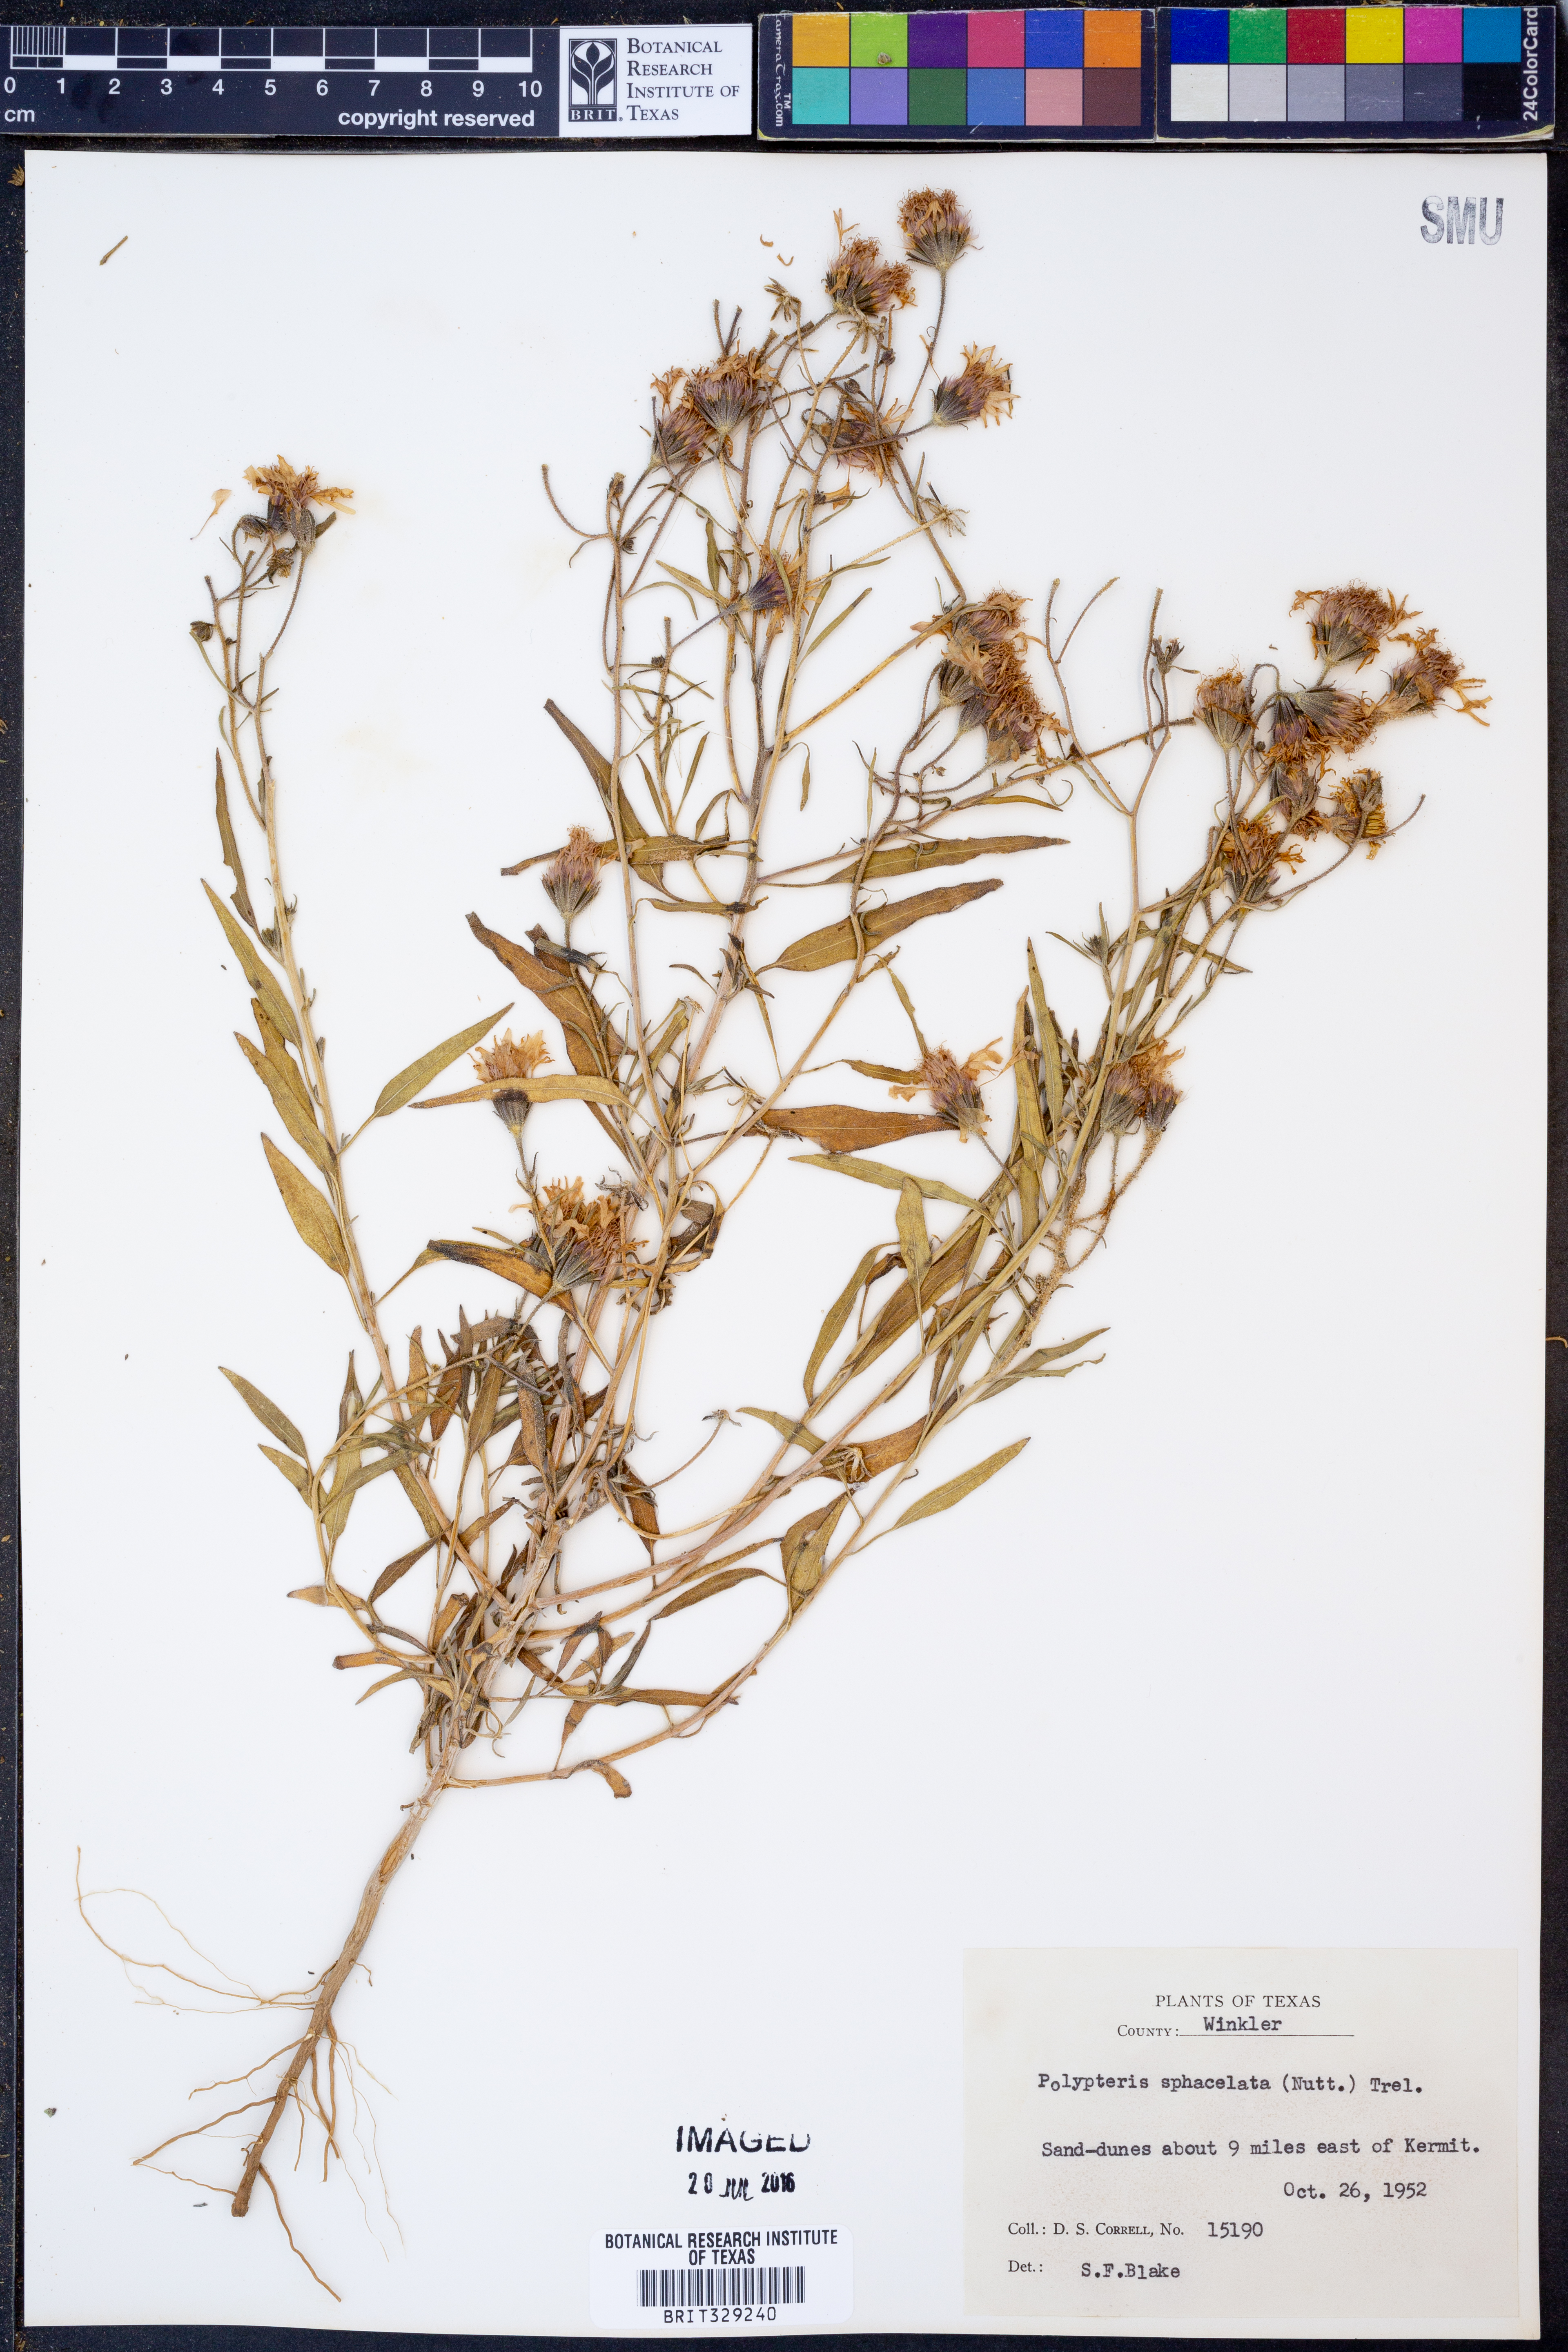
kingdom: Plantae
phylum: Tracheophyta
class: Magnoliopsida
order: Asterales
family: Asteraceae
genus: Palafoxia
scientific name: Palafoxia sphacelata
